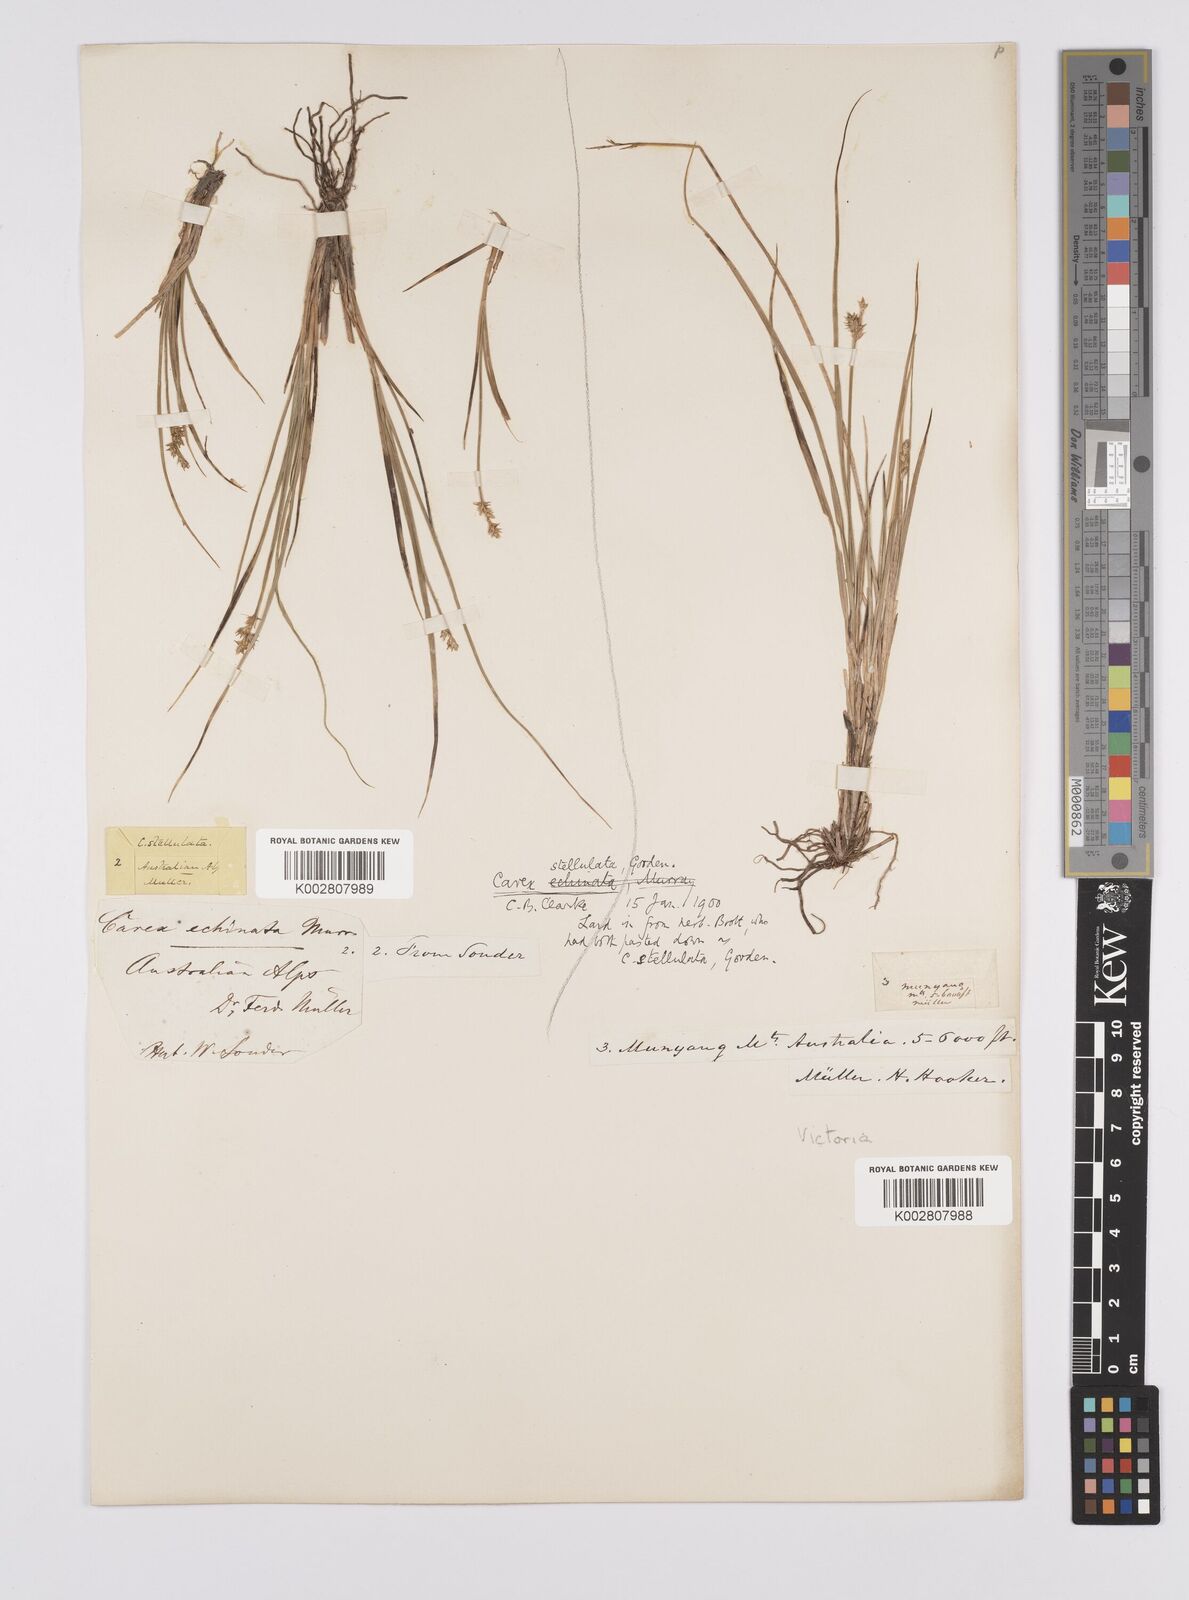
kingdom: Plantae
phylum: Tracheophyta
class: Liliopsida
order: Poales
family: Cyperaceae
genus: Carex
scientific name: Carex echinata
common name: Star sedge
